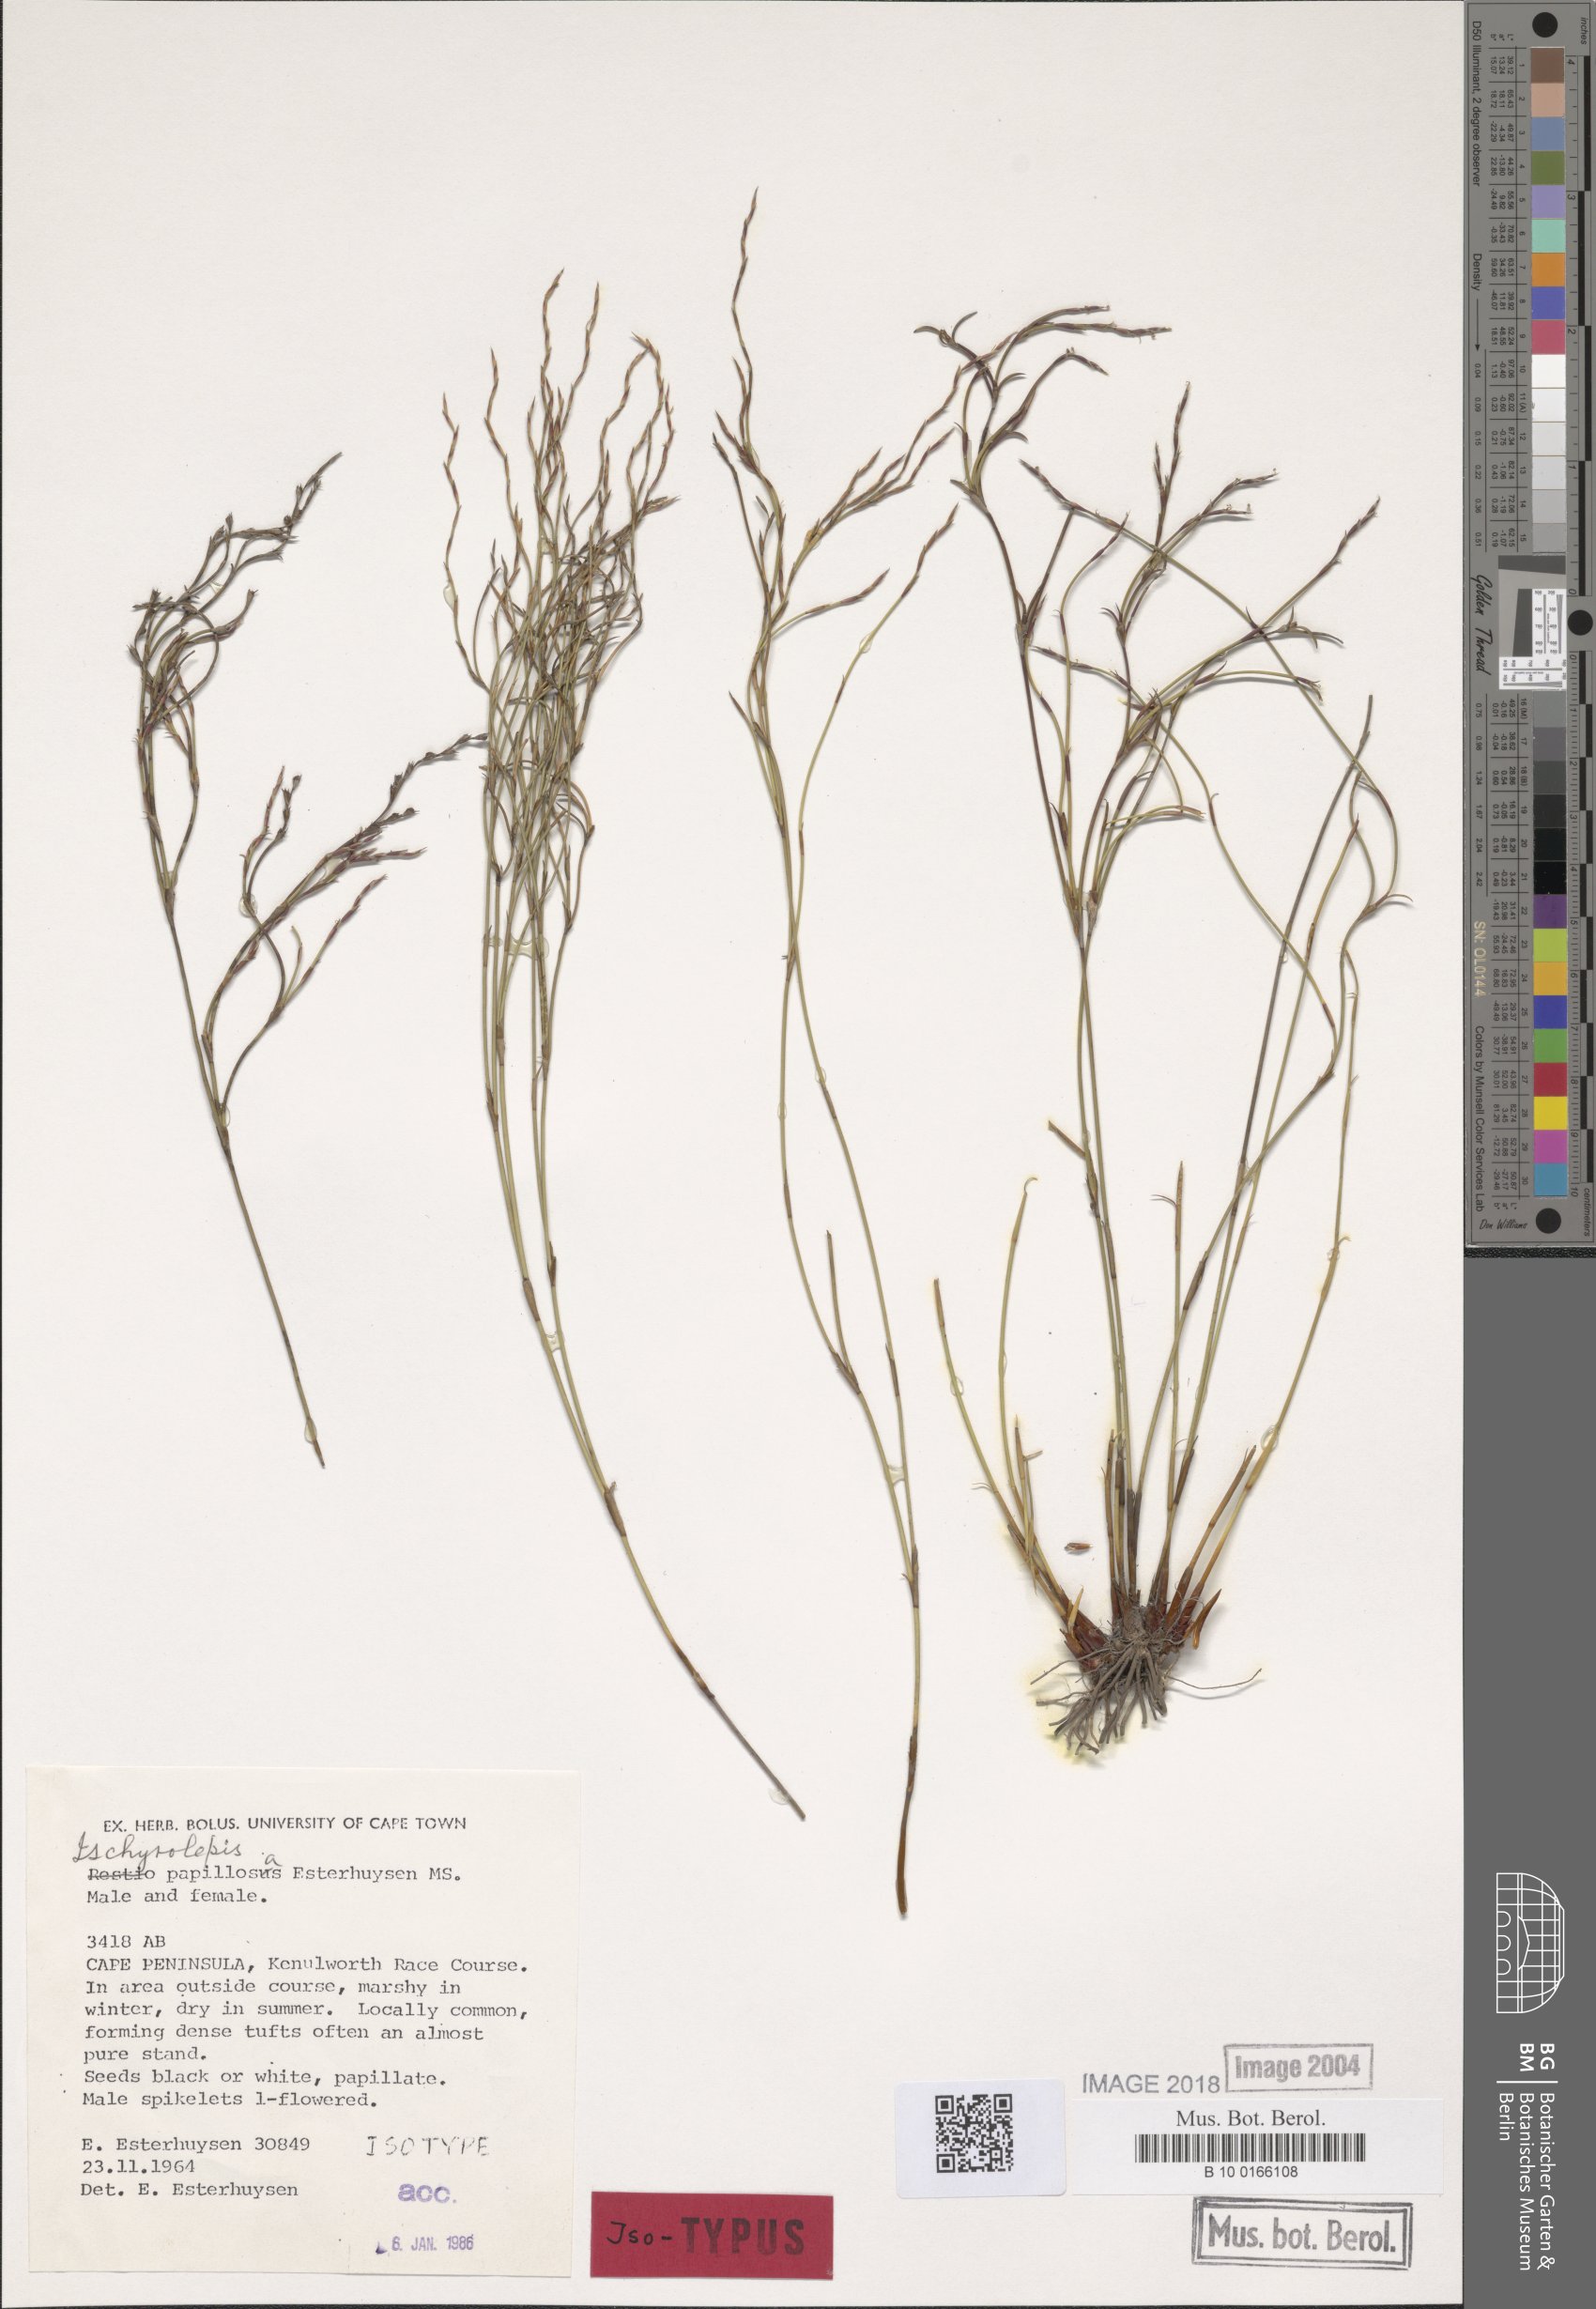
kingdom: Plantae
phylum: Tracheophyta
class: Liliopsida
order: Poales
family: Restionaceae
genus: Restio
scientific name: Restio papillosus
